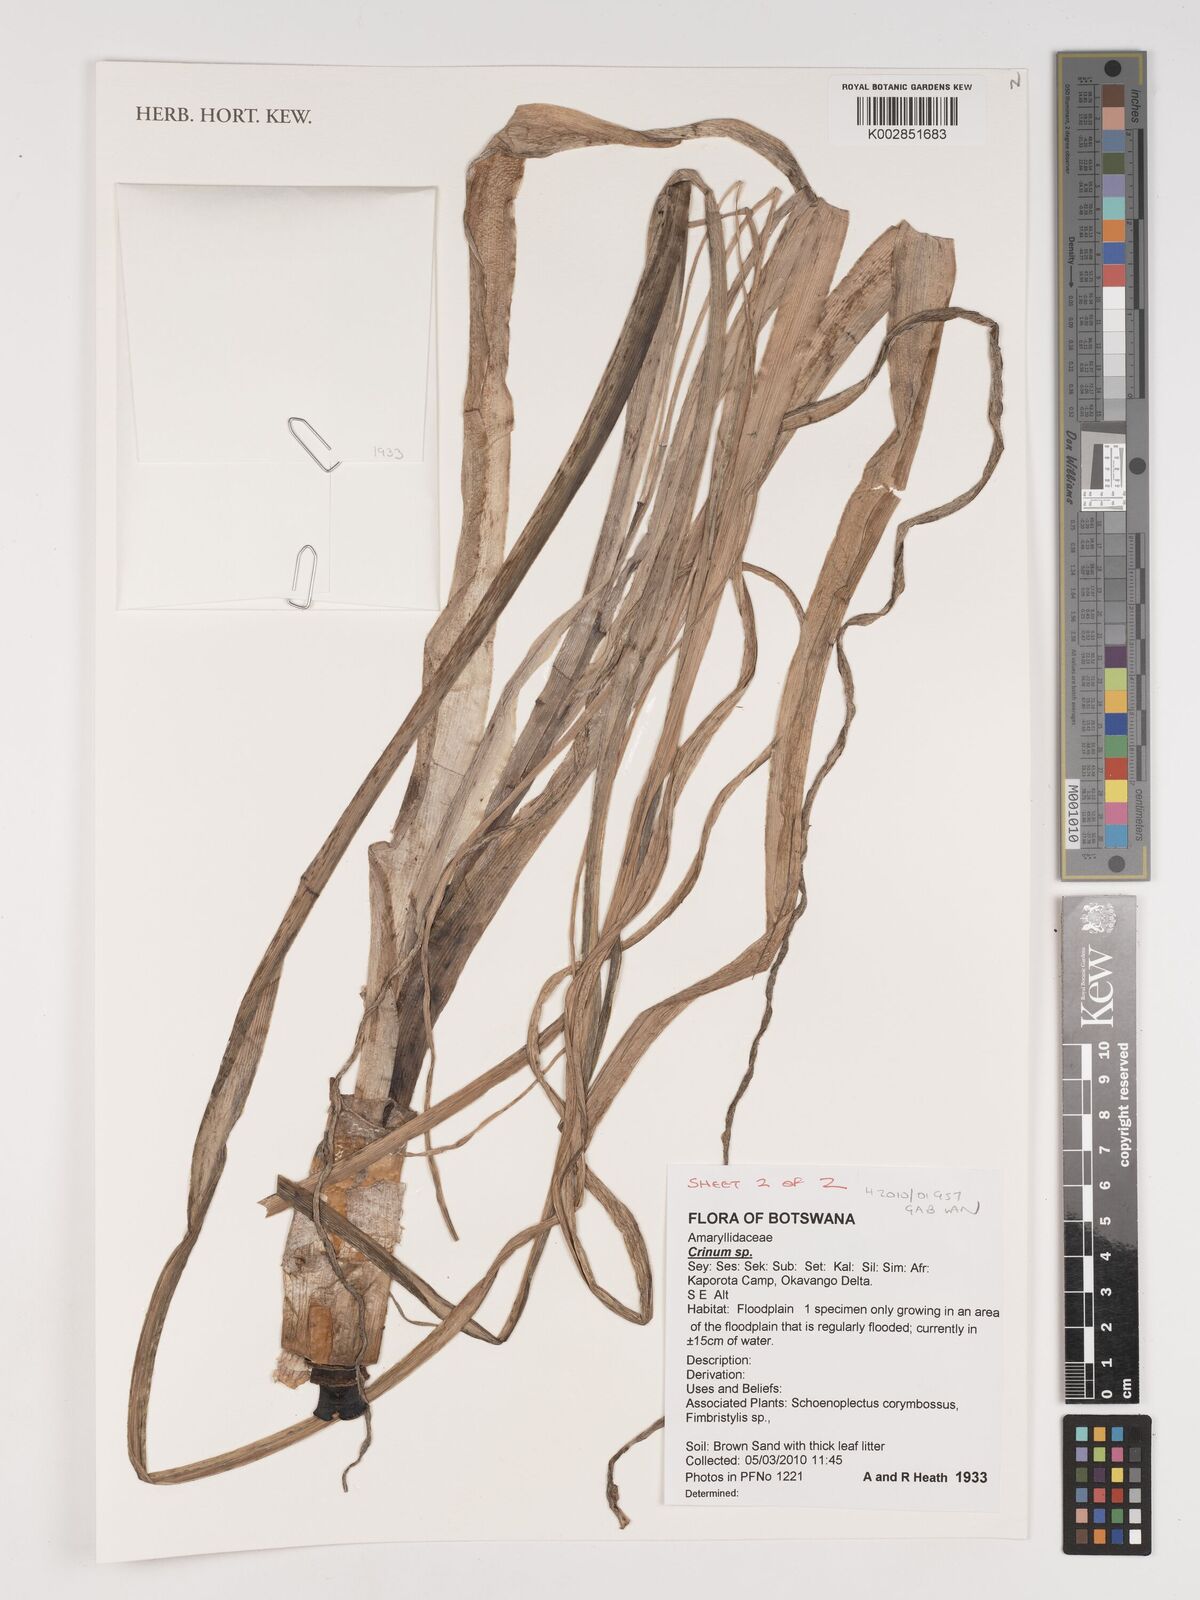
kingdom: Plantae
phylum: Tracheophyta
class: Liliopsida
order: Asparagales
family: Amaryllidaceae
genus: Crinum
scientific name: Crinum
